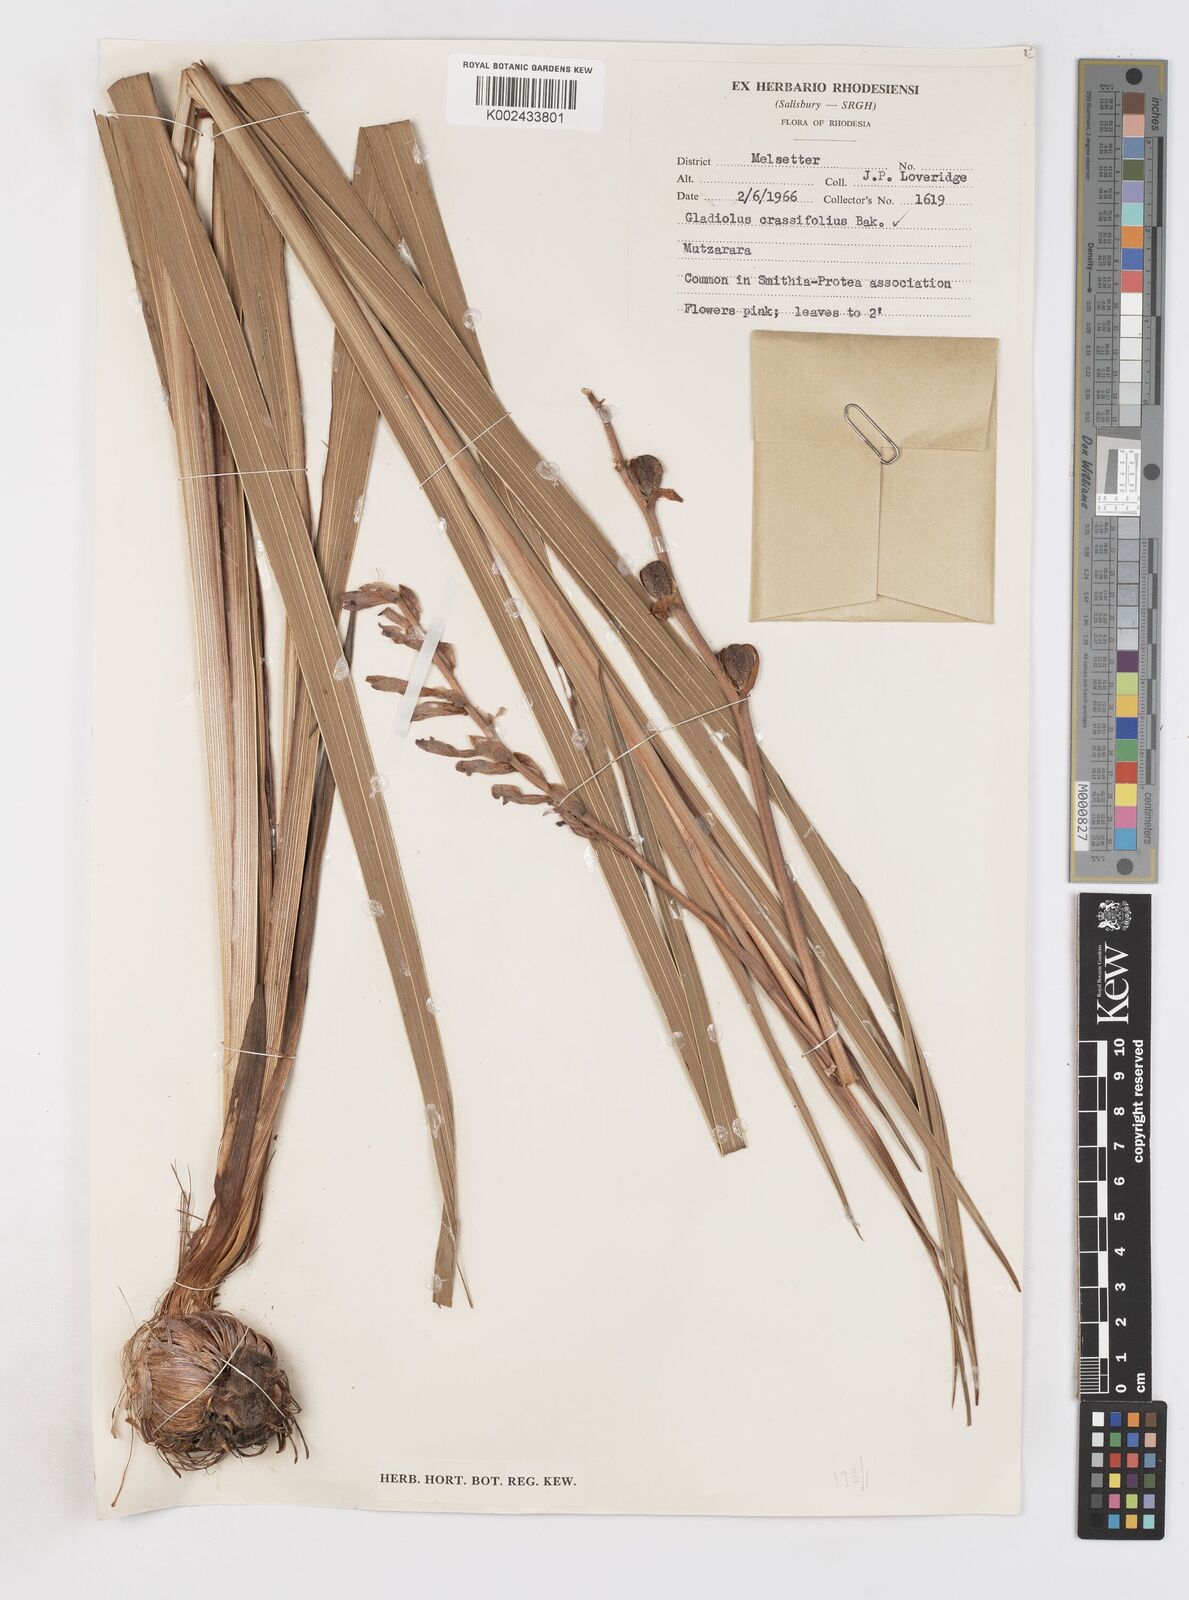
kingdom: Plantae
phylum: Tracheophyta
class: Liliopsida
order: Asparagales
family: Iridaceae
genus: Gladiolus
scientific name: Gladiolus crassifolius
